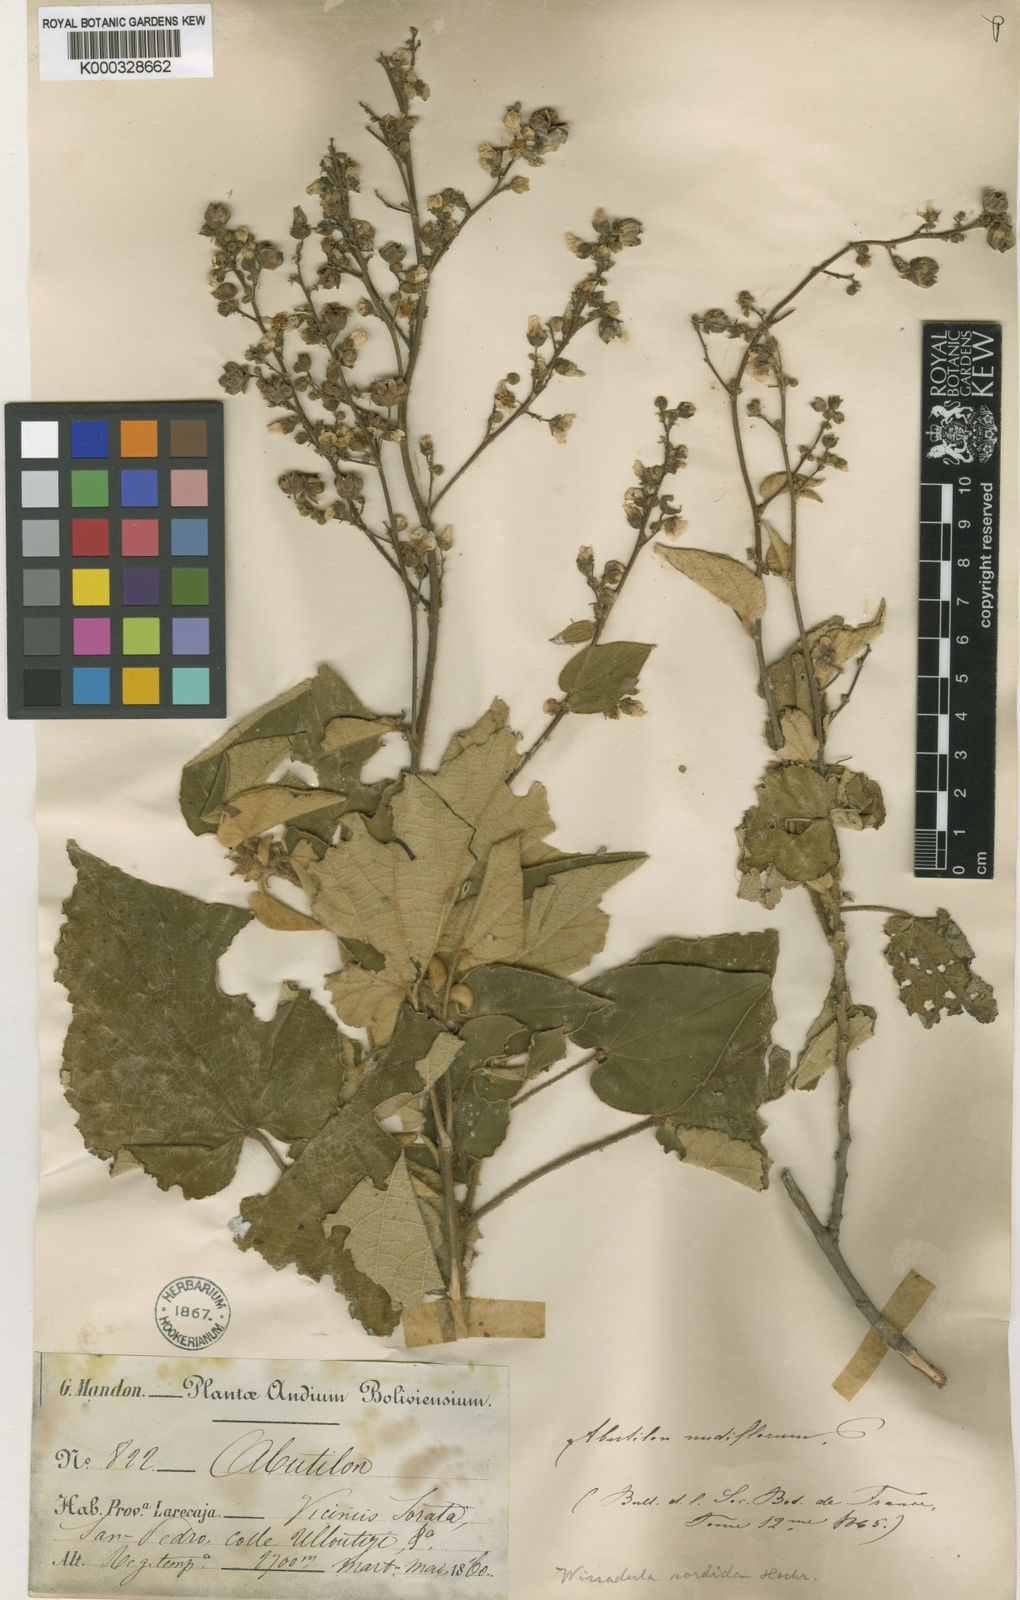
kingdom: Plantae
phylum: Tracheophyta
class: Magnoliopsida
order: Malvales
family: Malvaceae
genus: Wissadula
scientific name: Wissadula sordida
